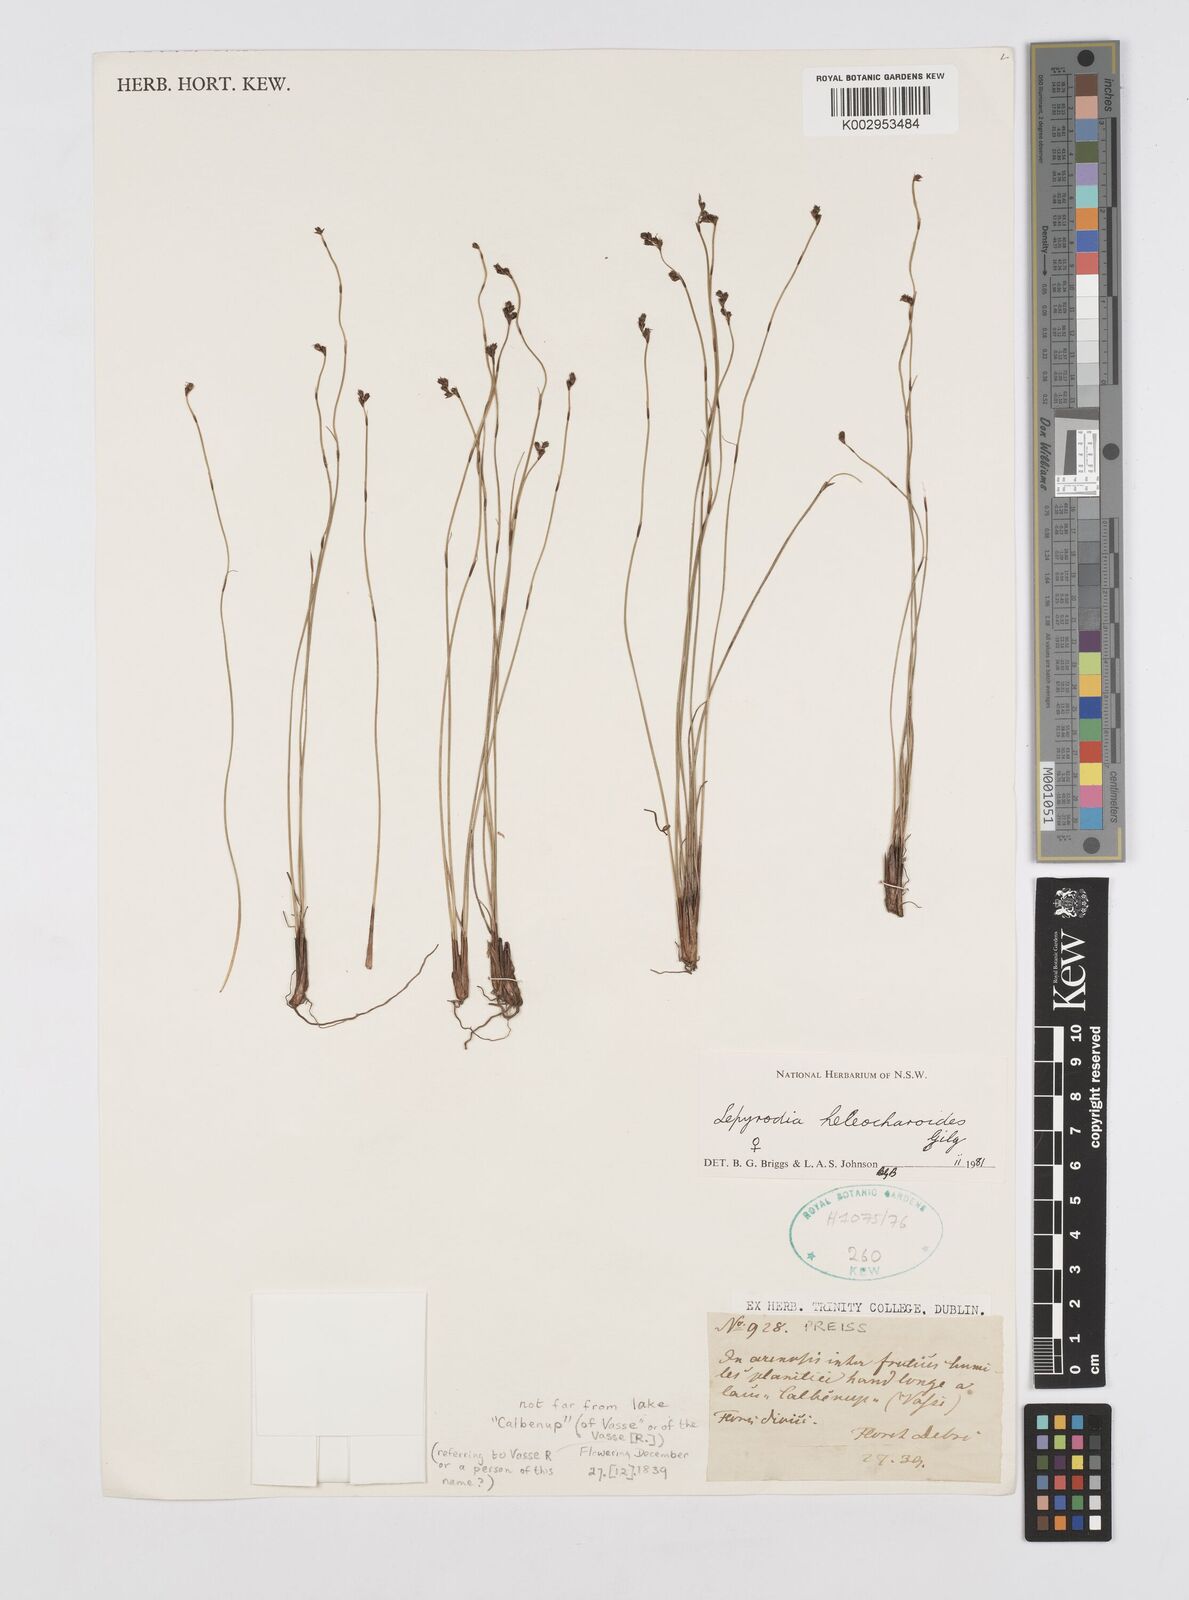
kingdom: Plantae
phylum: Tracheophyta
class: Liliopsida
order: Poales
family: Restionaceae
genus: Lepyrodia
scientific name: Lepyrodia heleocharoides
